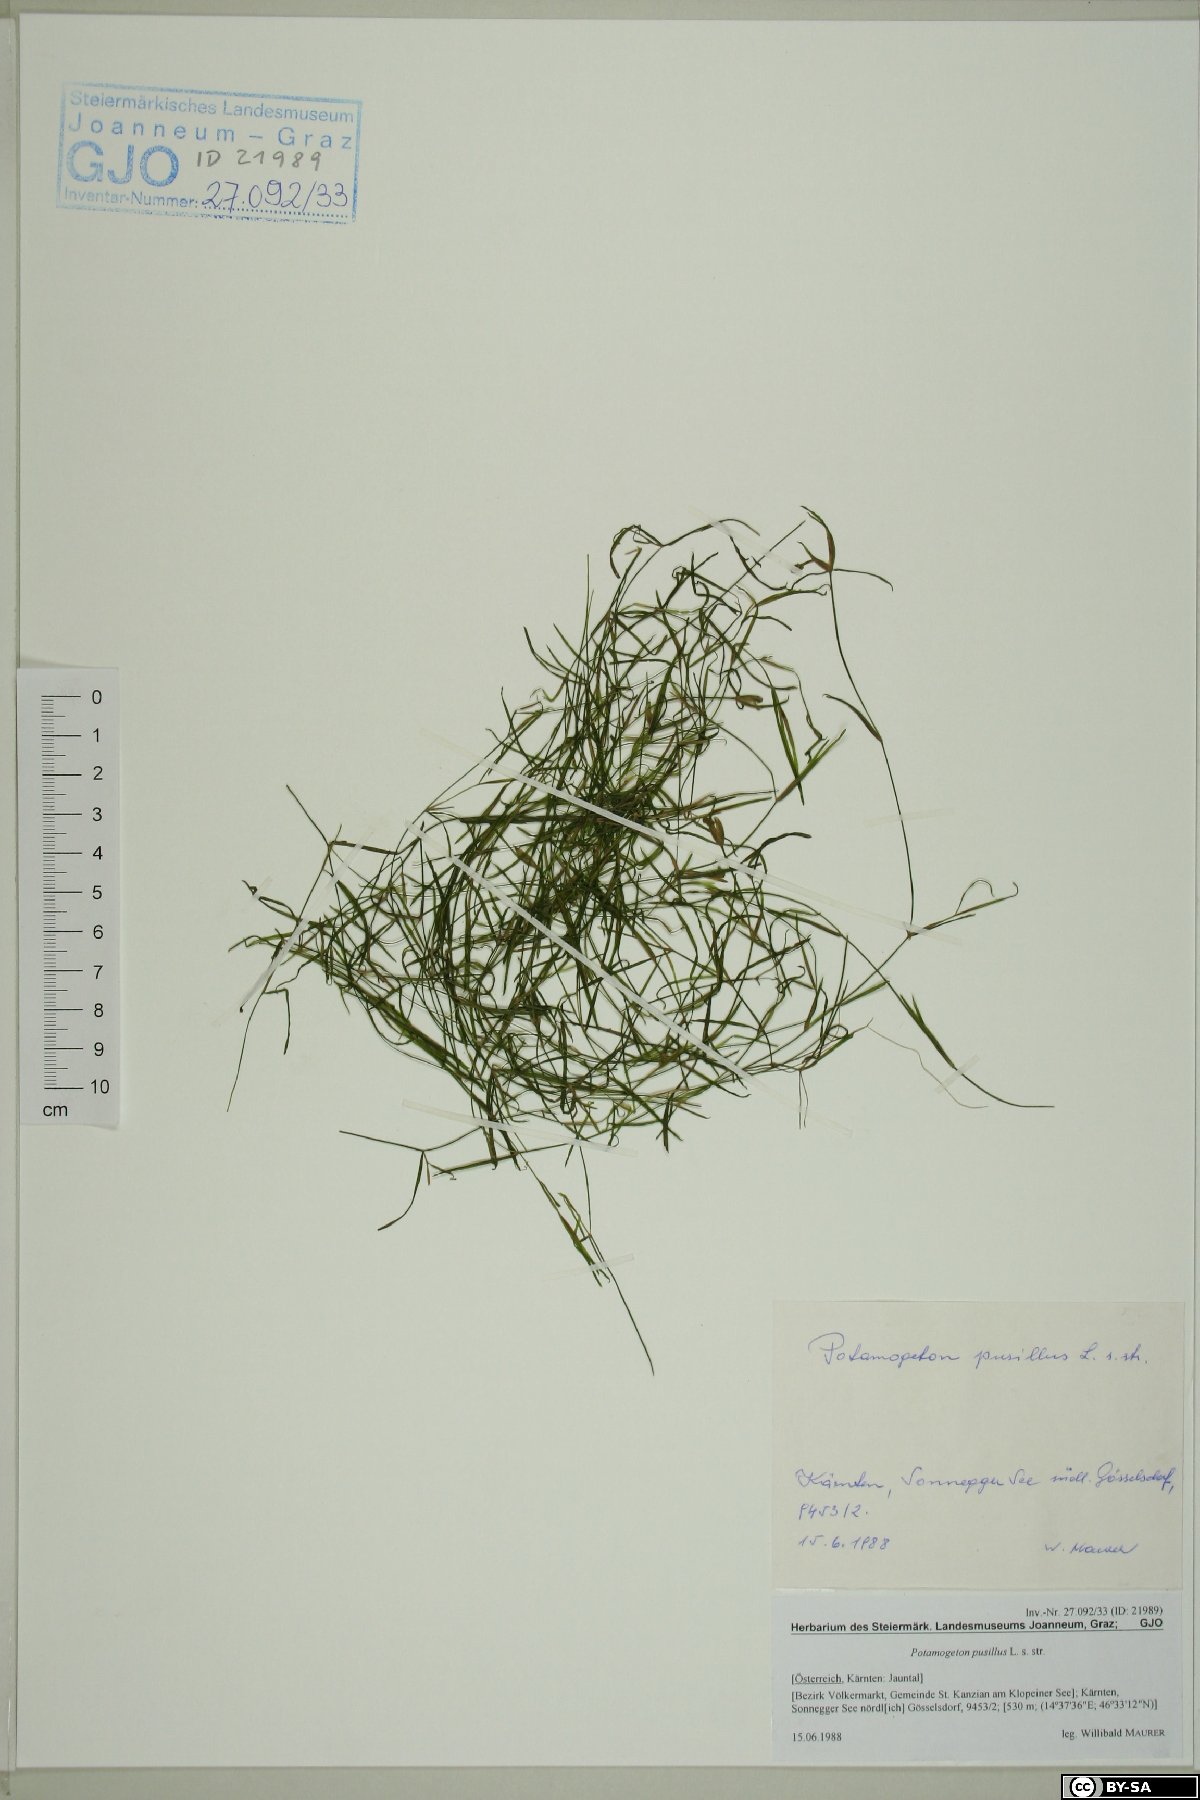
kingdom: Plantae
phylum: Tracheophyta
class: Liliopsida
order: Alismatales
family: Potamogetonaceae
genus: Potamogeton
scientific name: Potamogeton pusillus
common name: Lesser pondweed
